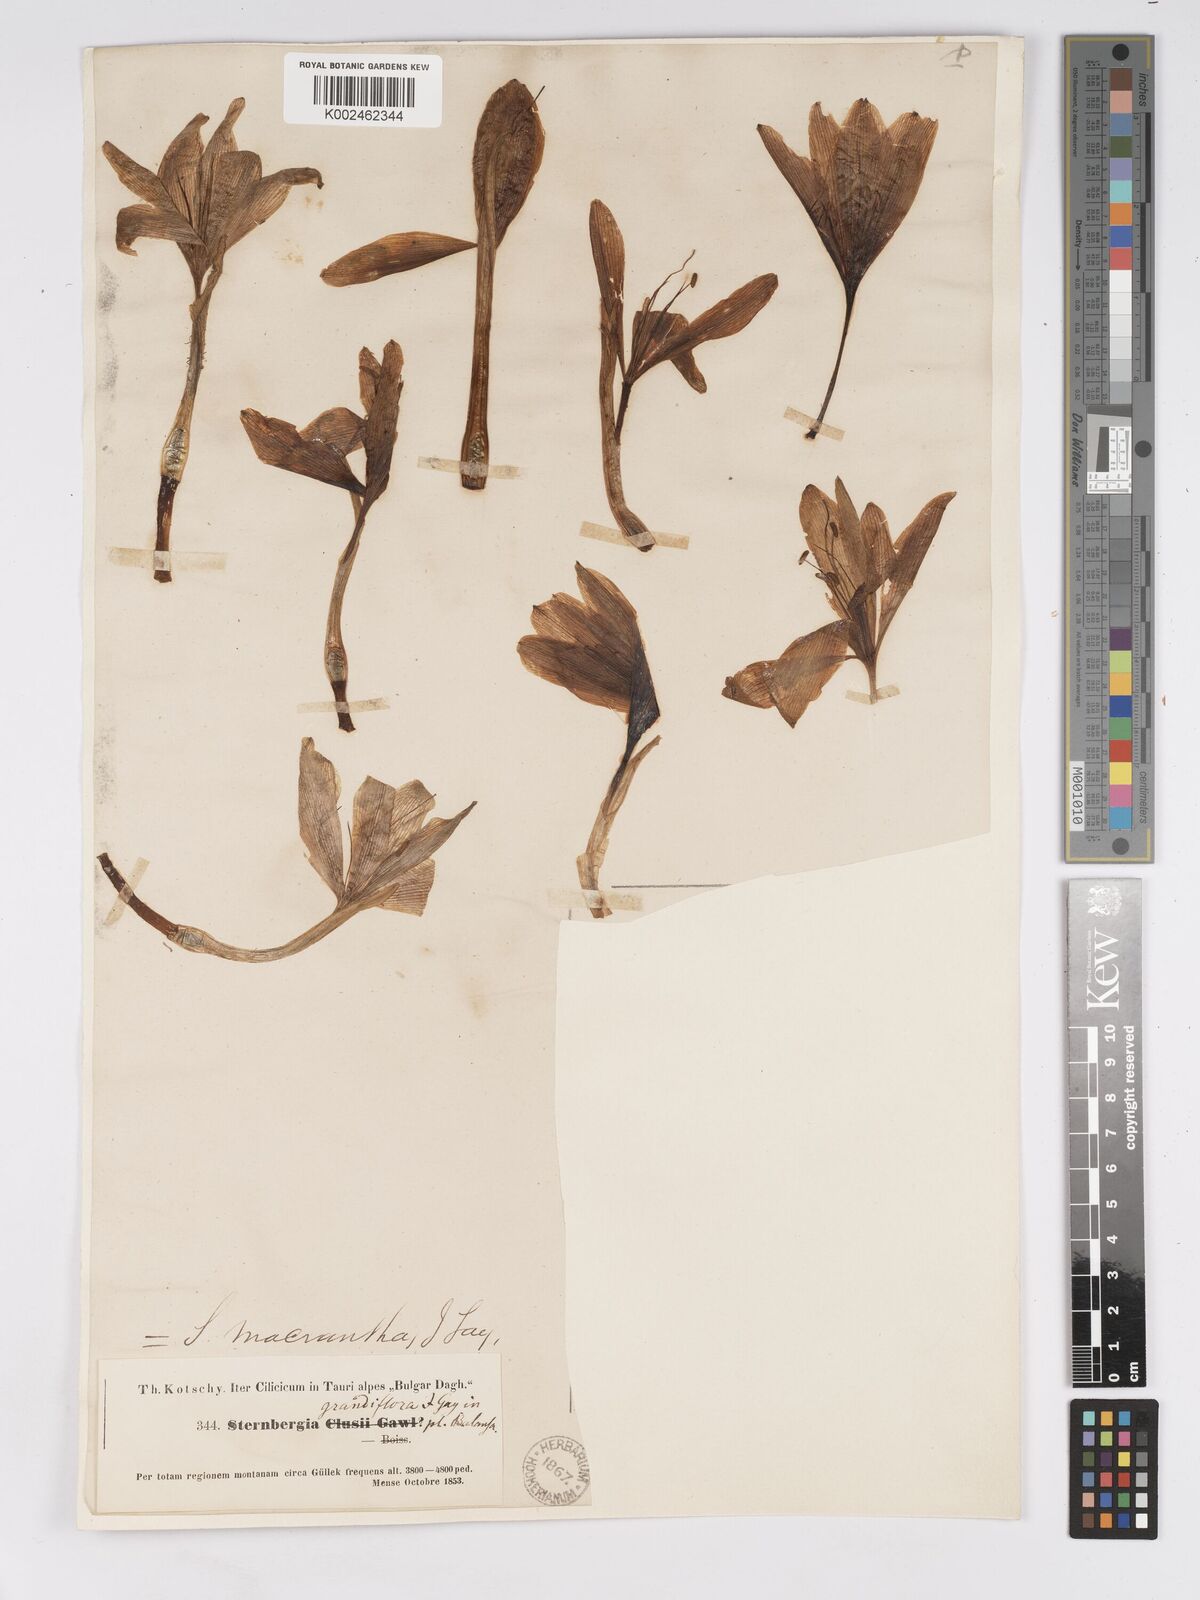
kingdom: Plantae
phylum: Tracheophyta
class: Liliopsida
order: Asparagales
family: Amaryllidaceae
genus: Sternbergia
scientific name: Sternbergia clusiana
